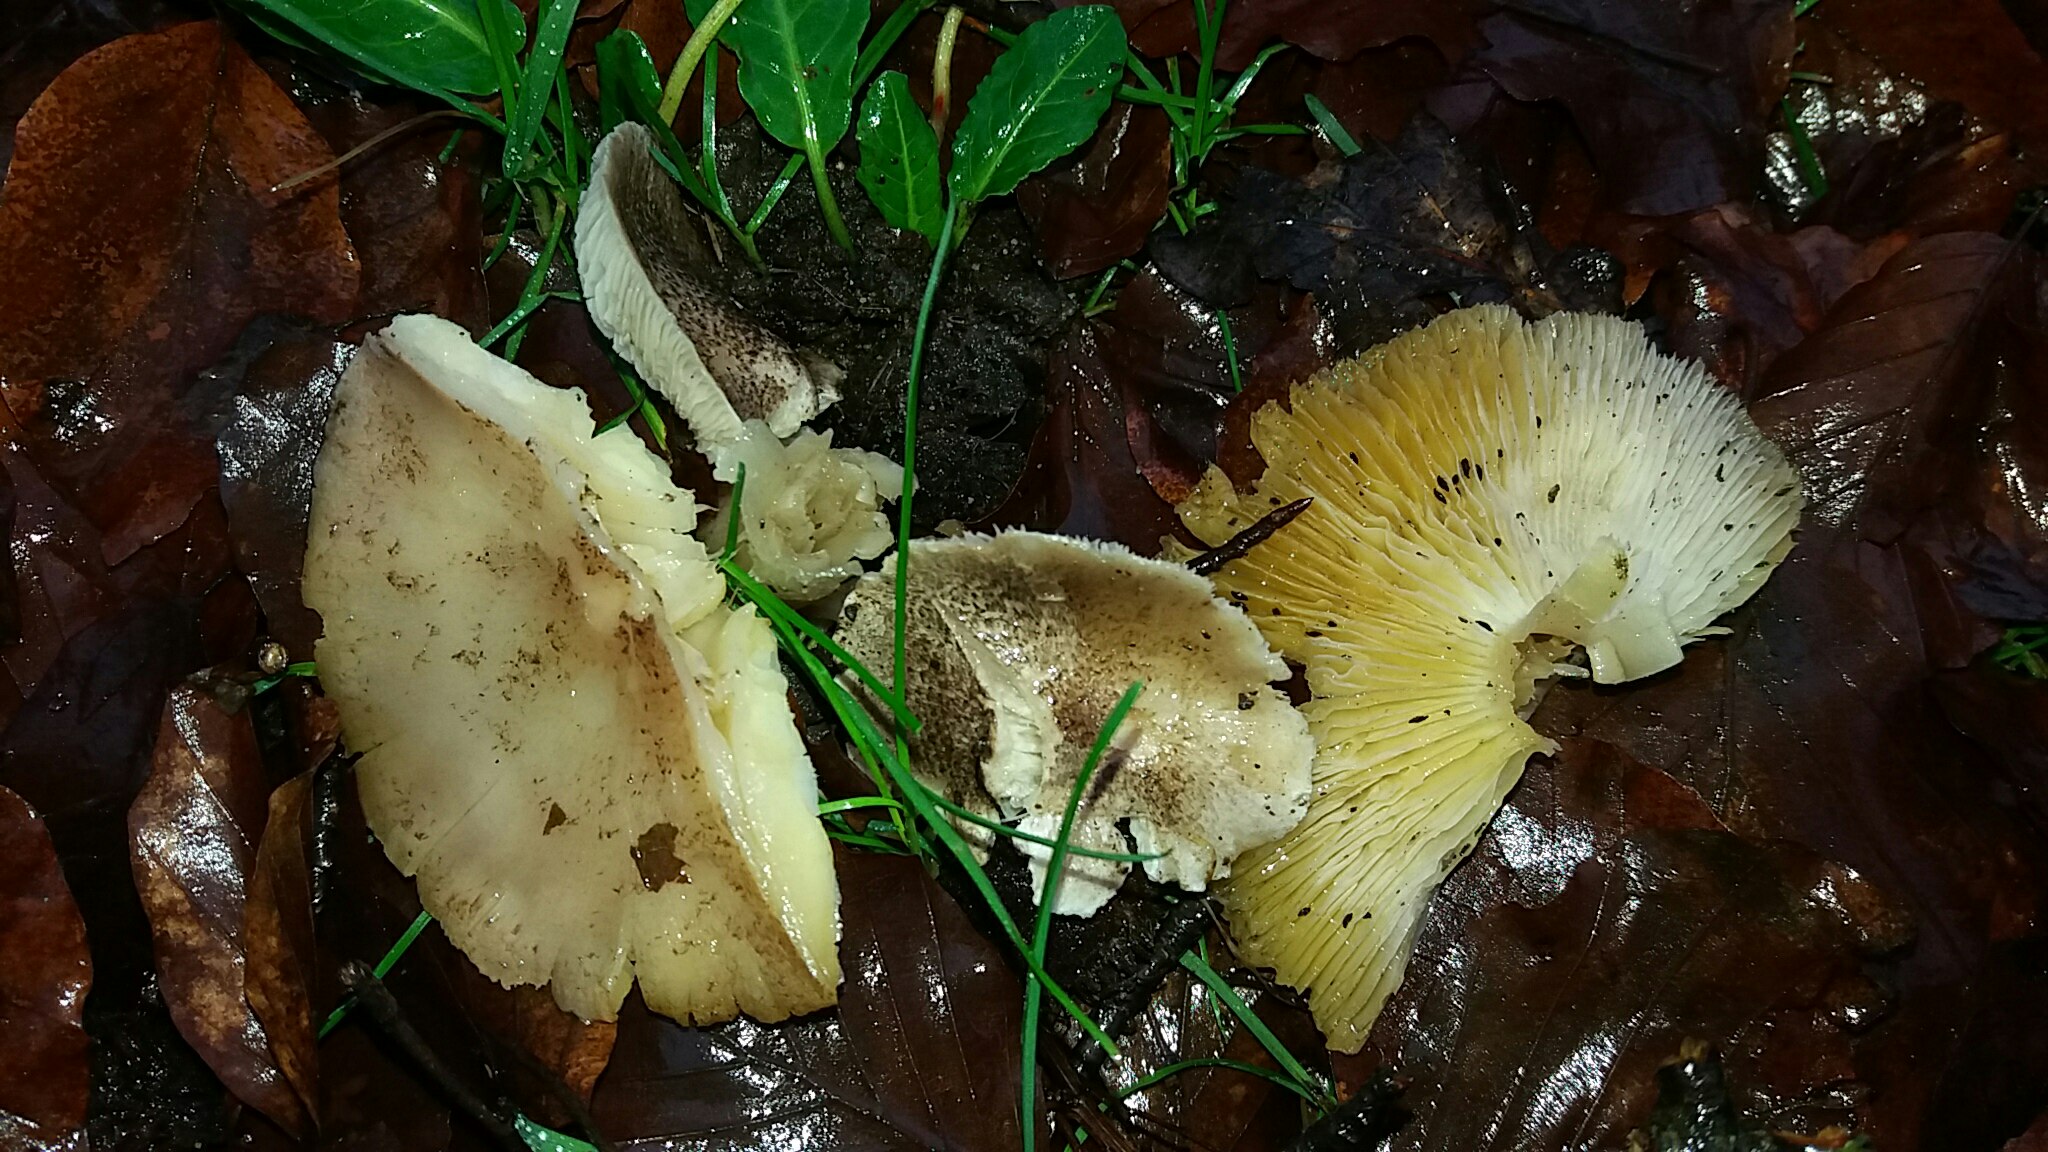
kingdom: Fungi
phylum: Basidiomycota
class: Agaricomycetes
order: Agaricales
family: Tricholomataceae
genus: Tricholoma
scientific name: Tricholoma scalpturatum
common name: gulplettet ridderhat
